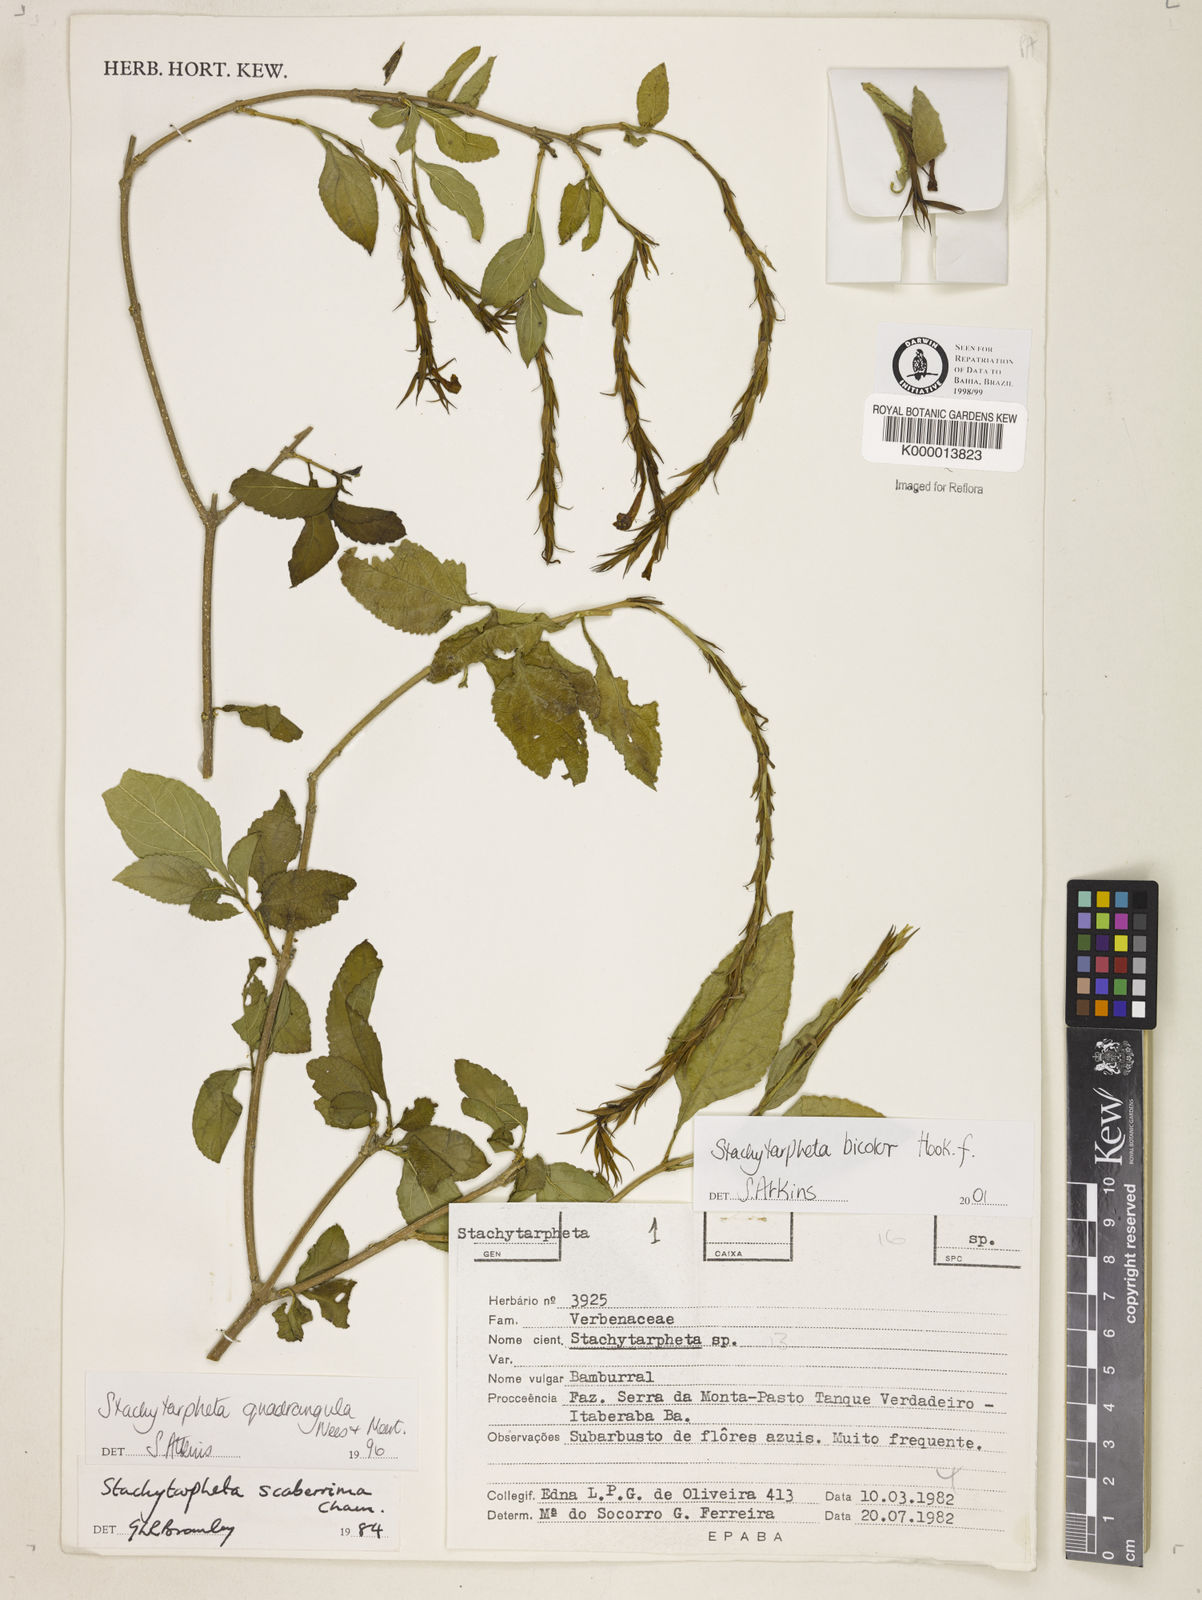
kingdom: Plantae
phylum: Tracheophyta
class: Magnoliopsida
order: Lamiales
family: Verbenaceae
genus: Stachytarpheta
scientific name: Stachytarpheta bicolor
